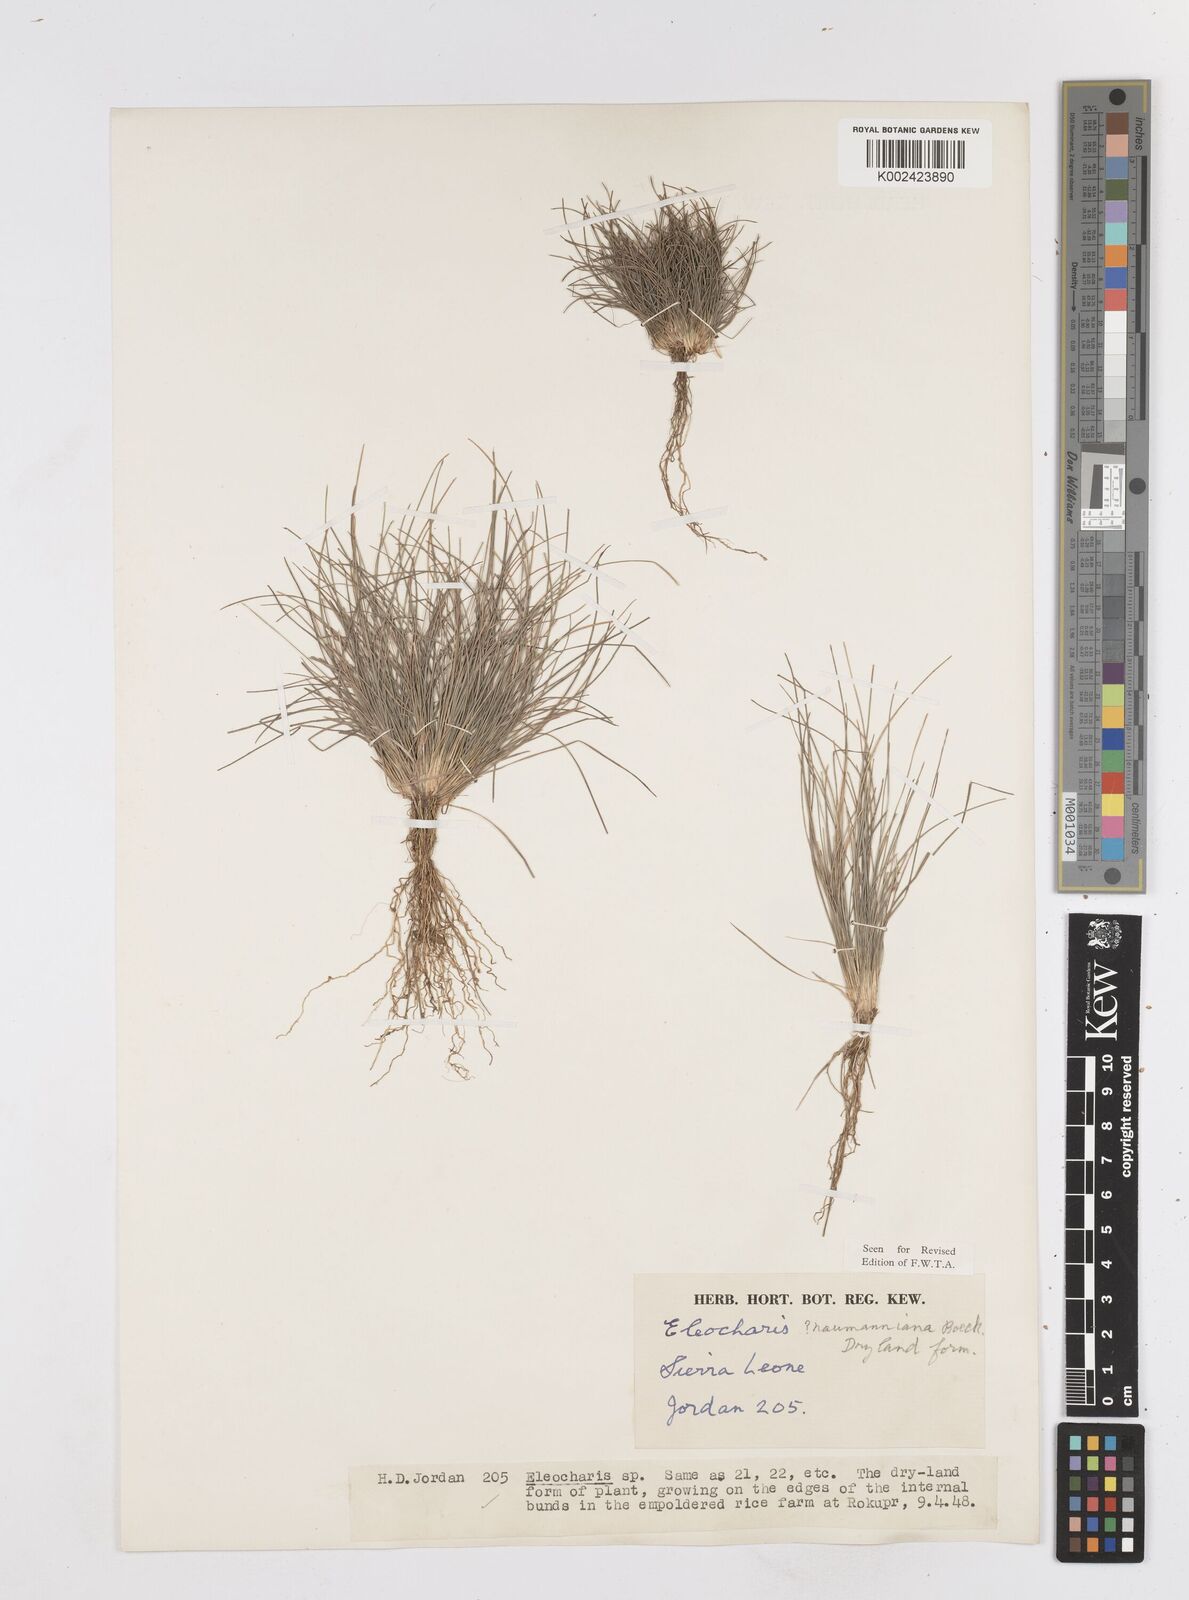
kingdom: Plantae
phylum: Tracheophyta
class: Liliopsida
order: Poales
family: Cyperaceae
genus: Eleocharis
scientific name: Eleocharis naumanniana
